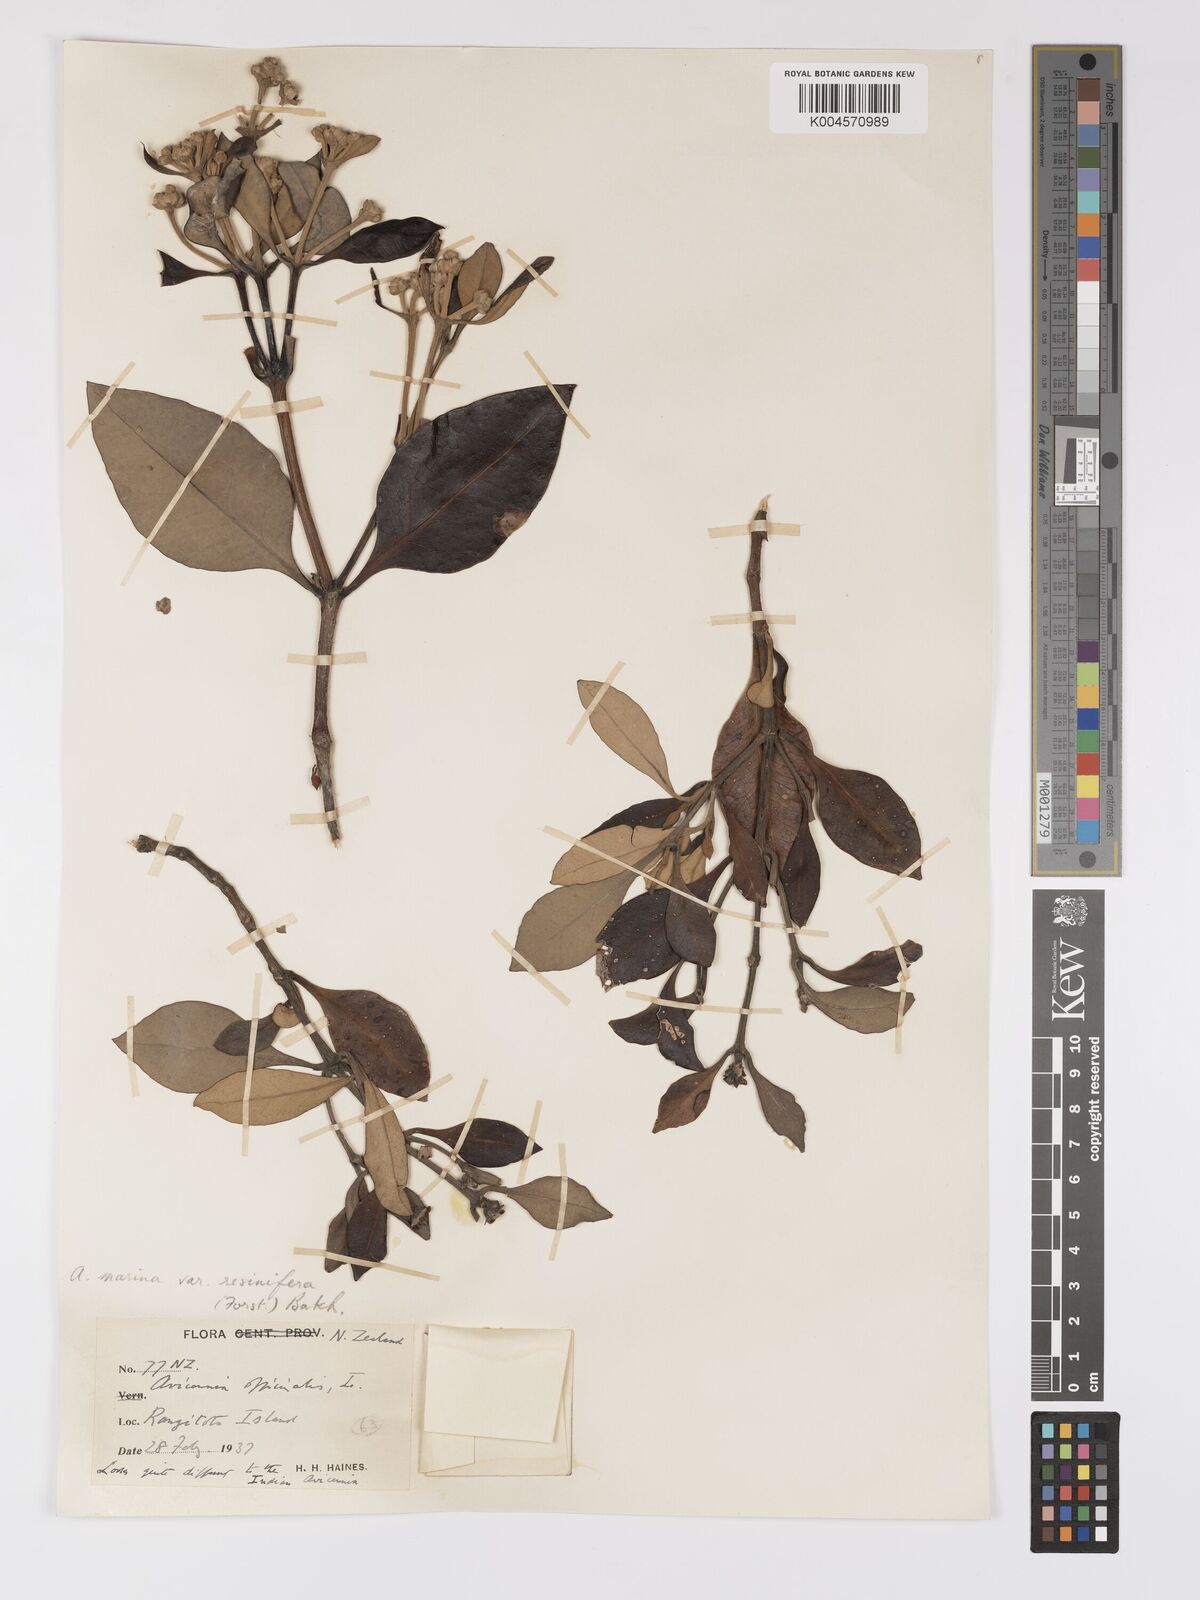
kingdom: Plantae
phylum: Tracheophyta
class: Magnoliopsida
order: Lamiales
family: Acanthaceae
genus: Avicennia
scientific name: Avicennia marina
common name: Gray mangrove
